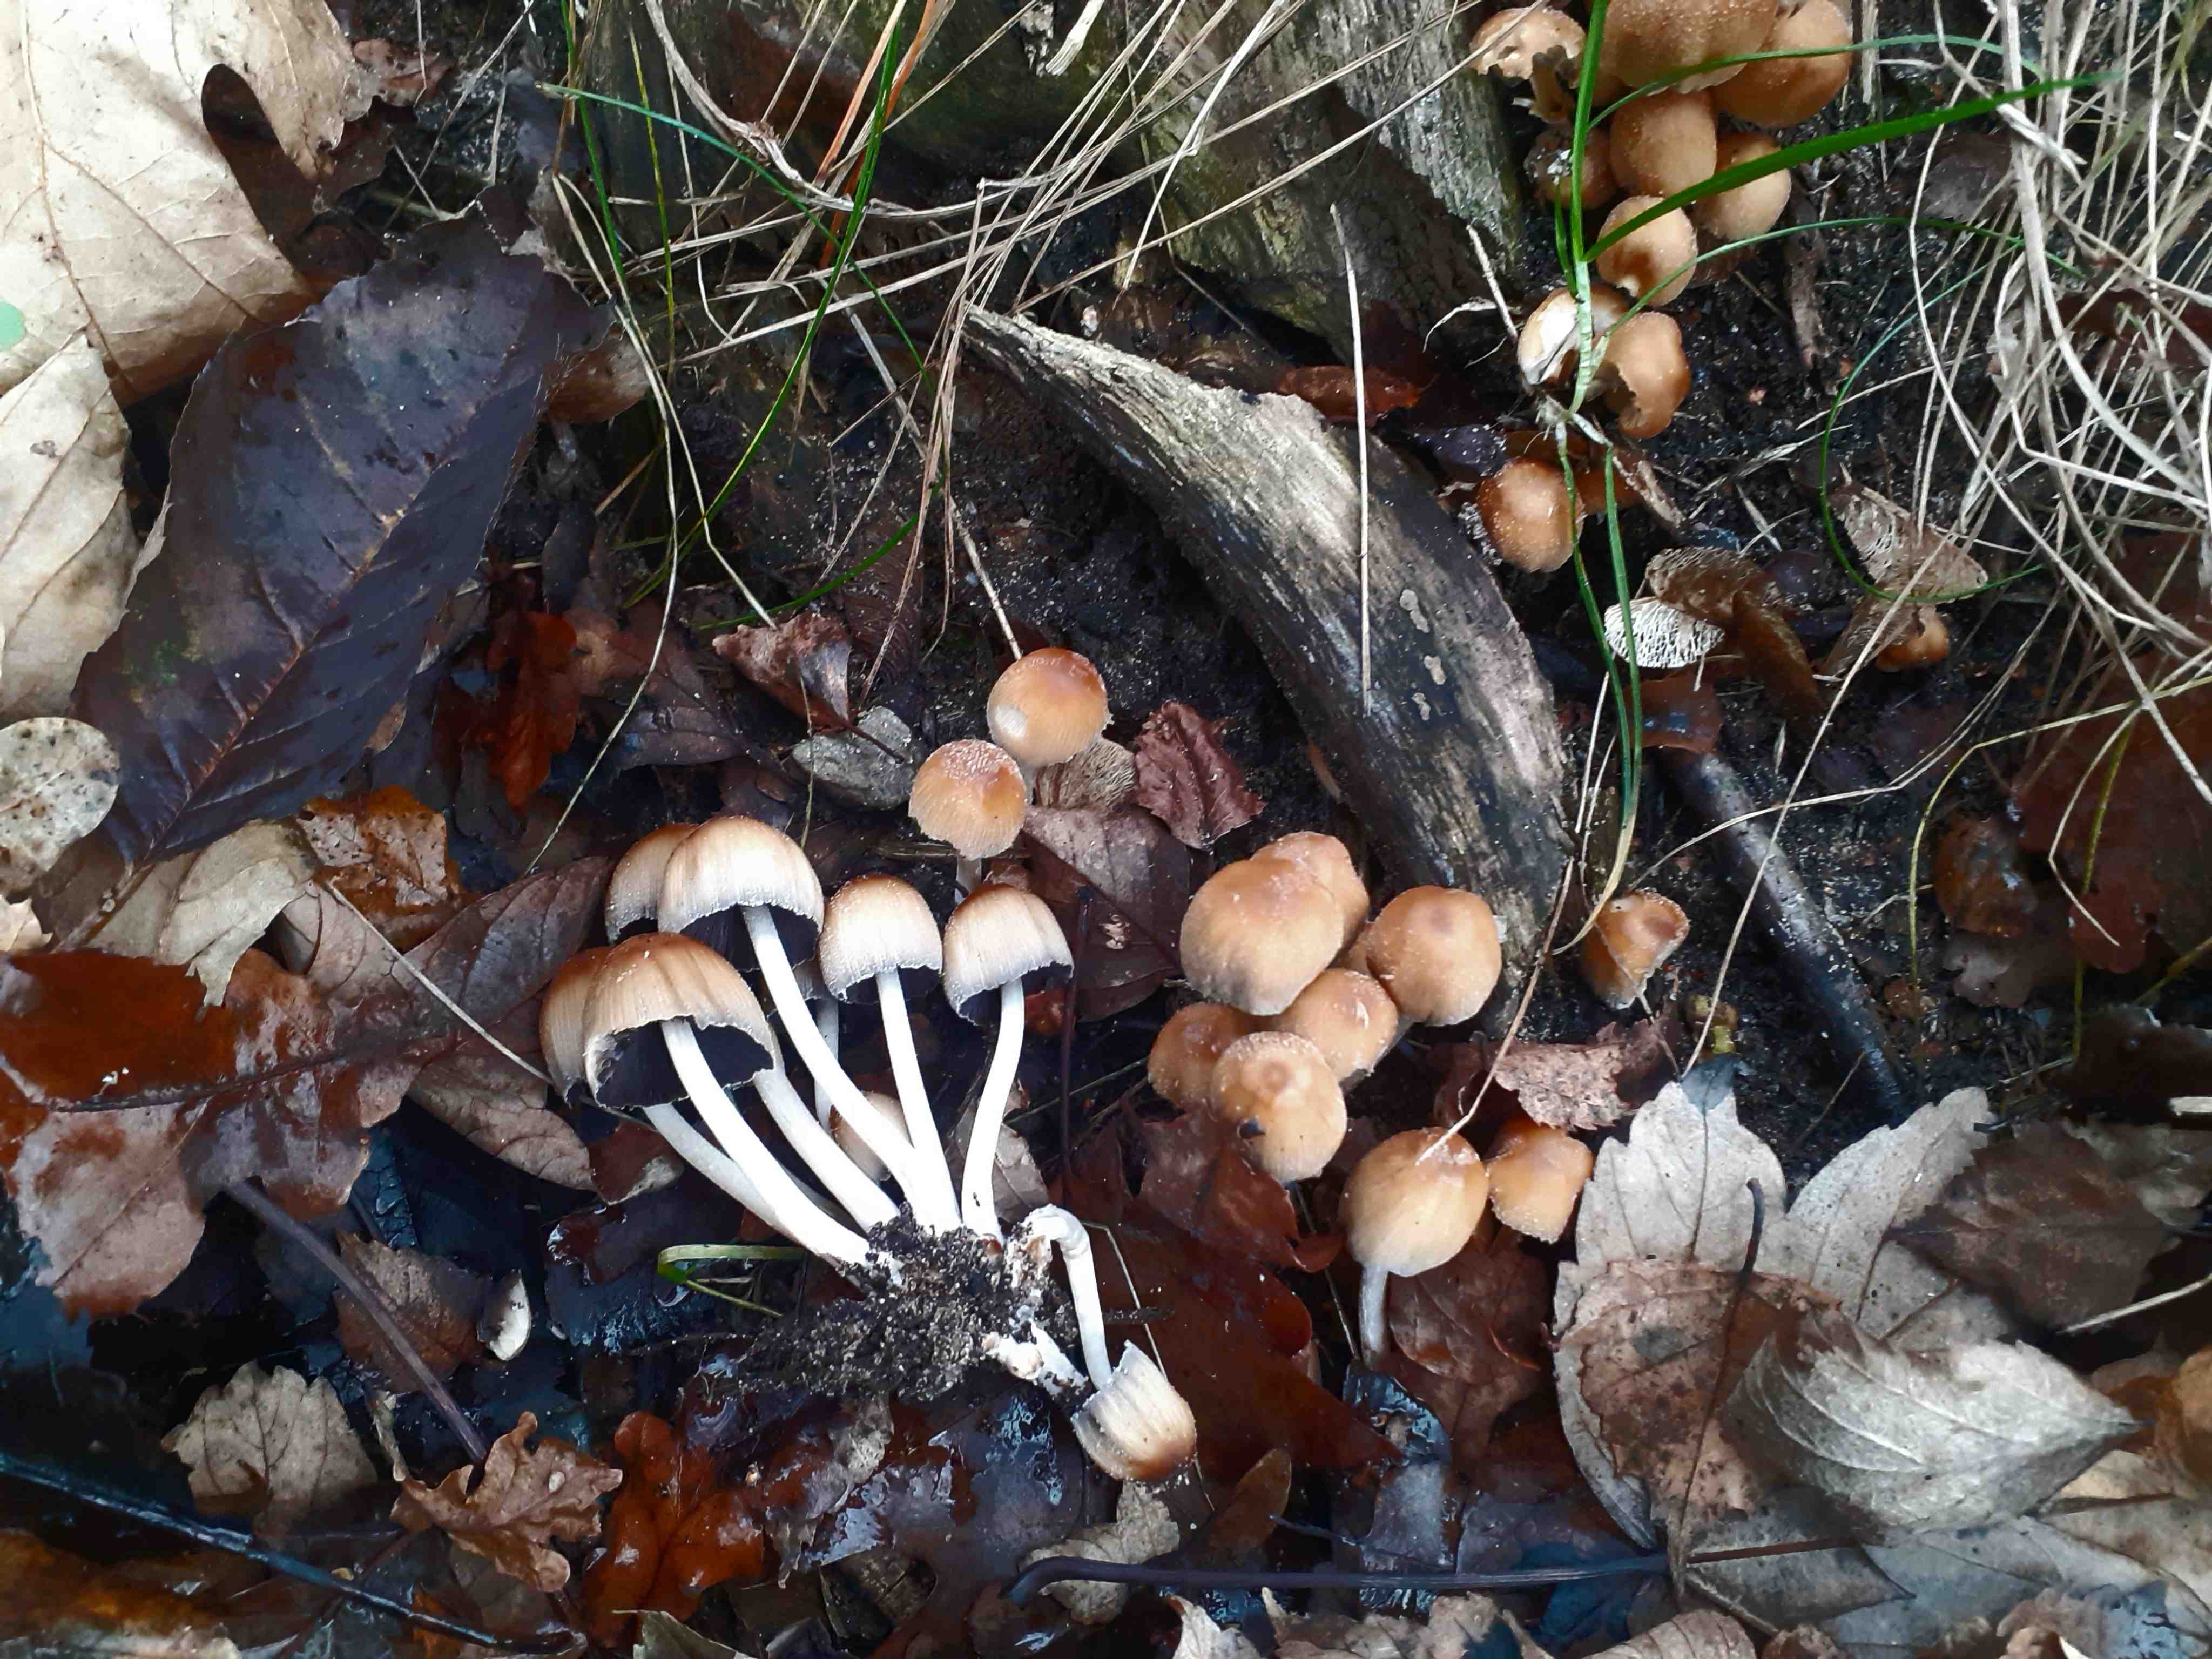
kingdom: Fungi
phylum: Basidiomycota
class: Agaricomycetes
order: Agaricales
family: Psathyrellaceae
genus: Coprinellus
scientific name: Coprinellus micaceus
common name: glimmer-blækhat
